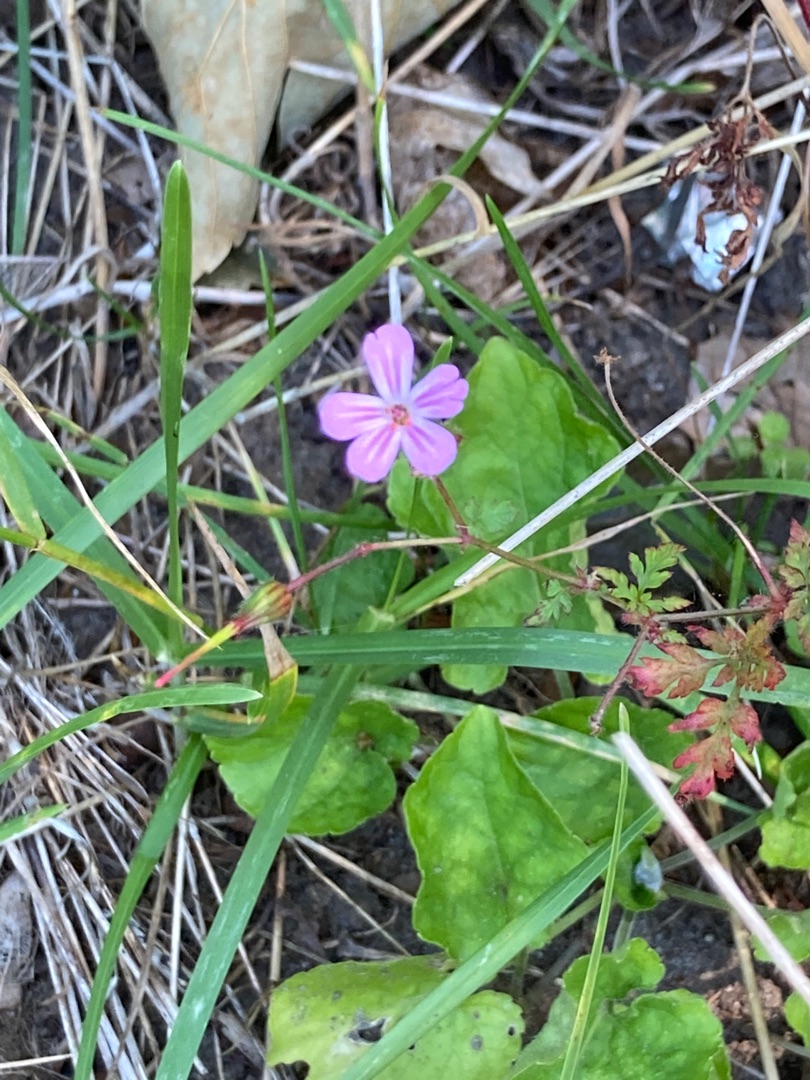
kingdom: Plantae
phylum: Tracheophyta
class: Magnoliopsida
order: Geraniales
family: Geraniaceae
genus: Geranium
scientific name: Geranium robertianum
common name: Stinkende storkenæb
